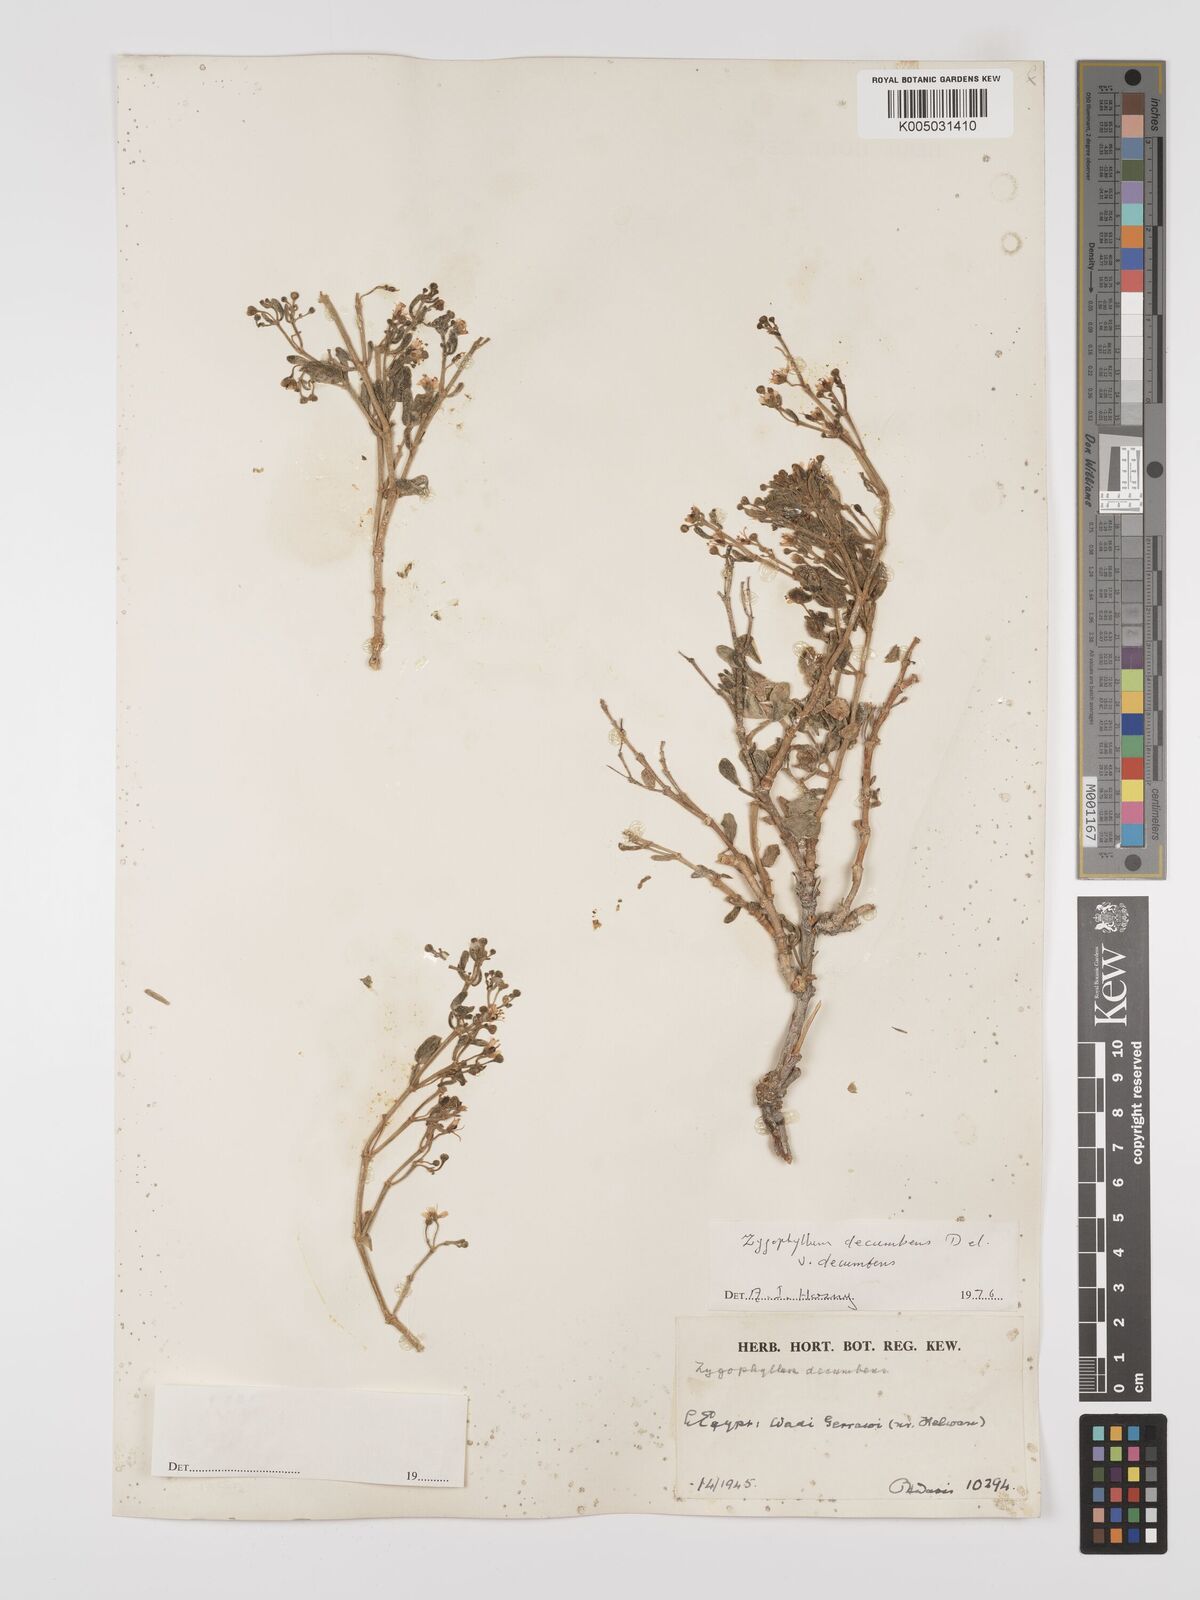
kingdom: Plantae
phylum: Tracheophyta
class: Magnoliopsida
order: Zygophyllales
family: Zygophyllaceae
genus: Tetraena
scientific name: Tetraena decumbens
